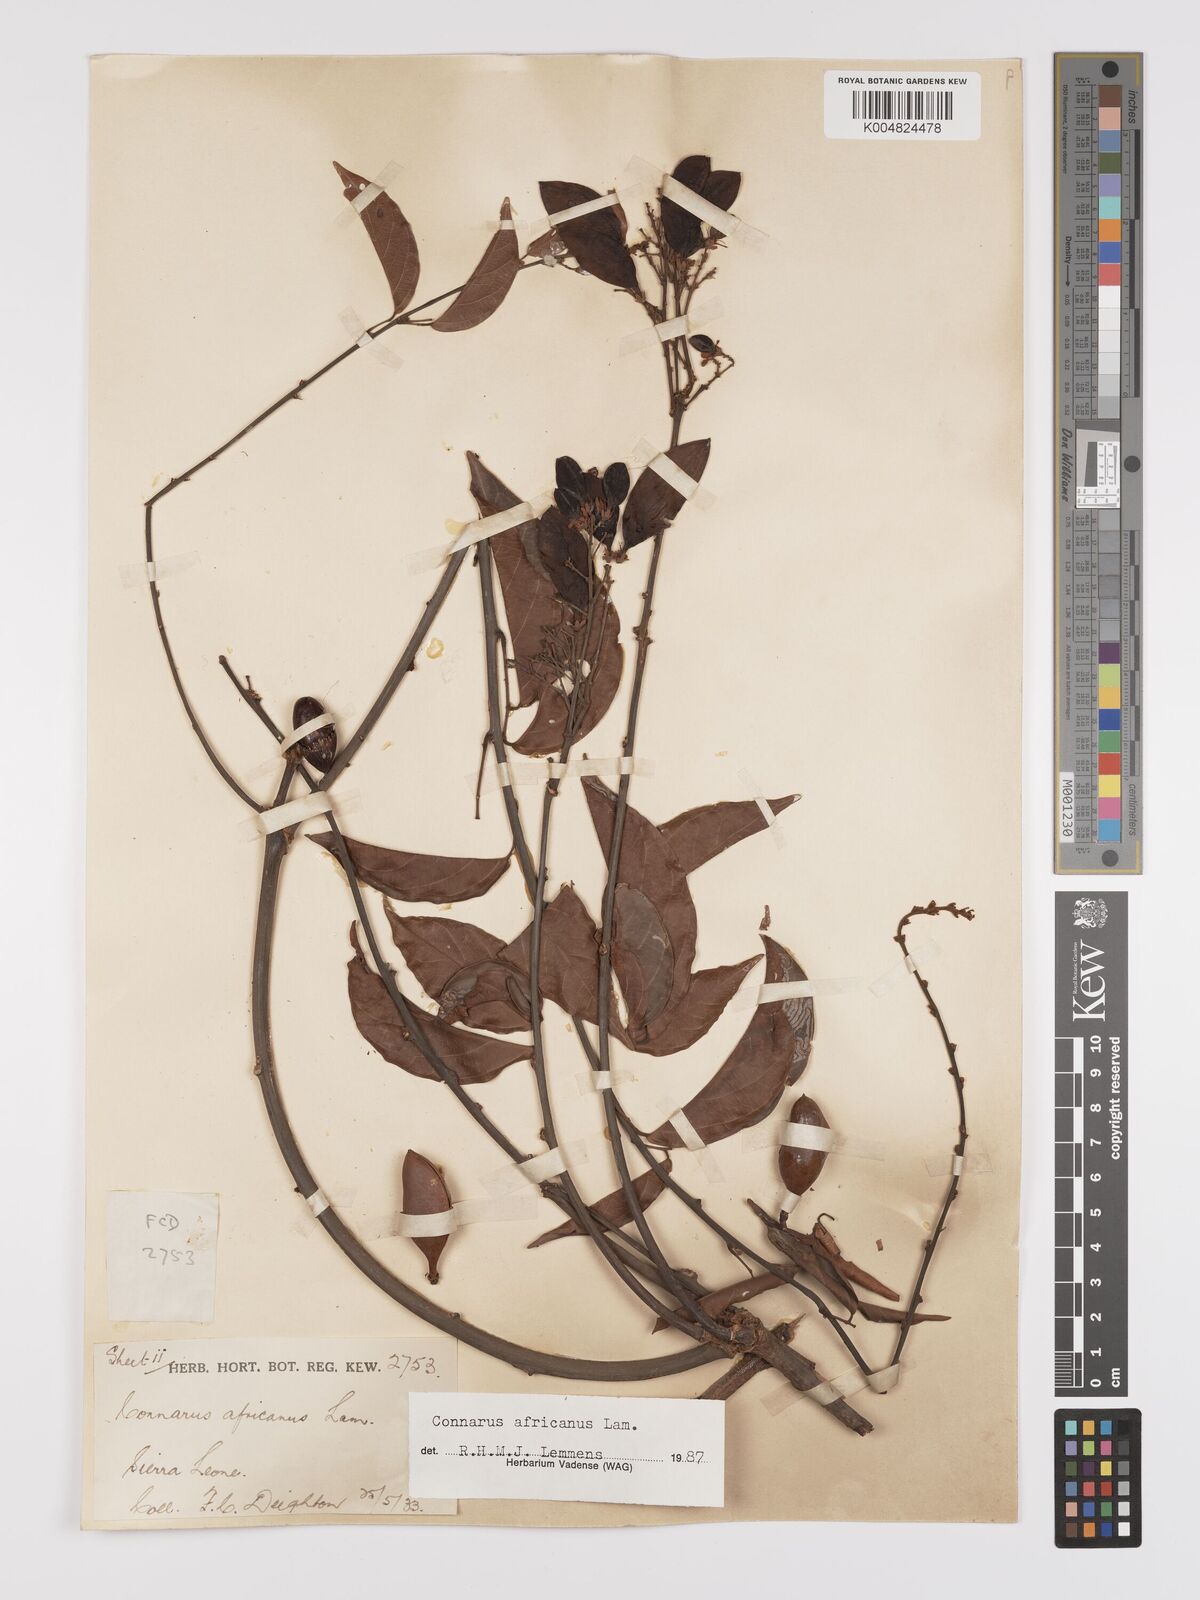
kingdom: Plantae
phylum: Tracheophyta
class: Magnoliopsida
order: Oxalidales
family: Connaraceae
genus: Connarus
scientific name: Connarus africanus
